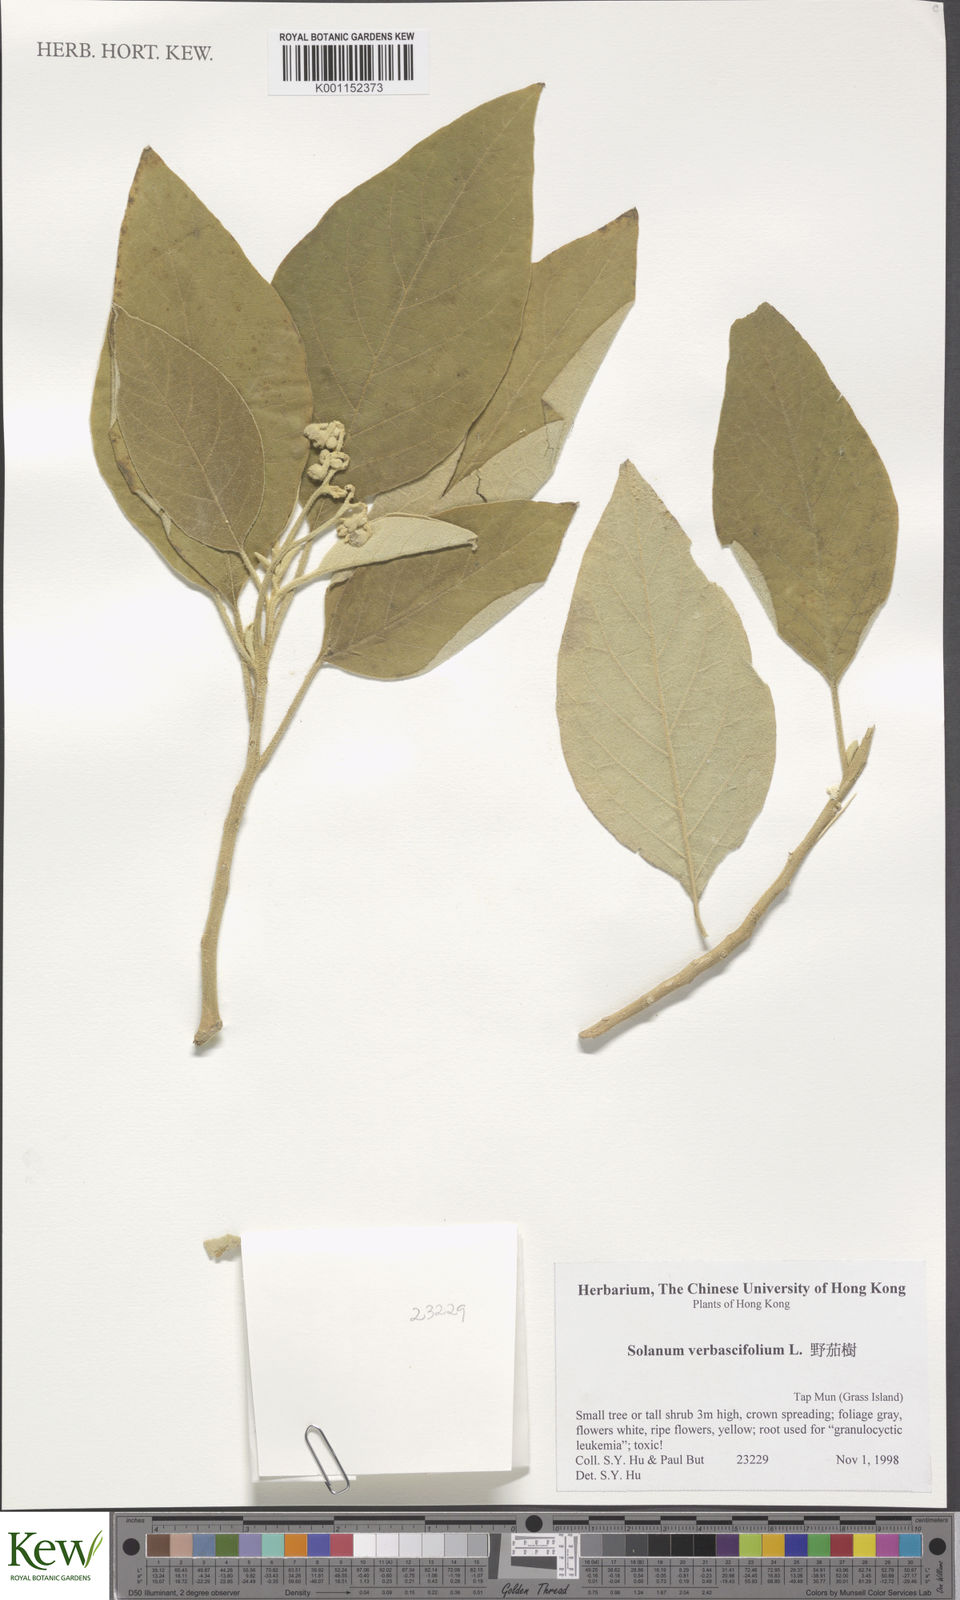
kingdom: Plantae
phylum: Tracheophyta
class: Magnoliopsida
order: Solanales
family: Solanaceae
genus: Solanum
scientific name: Solanum erianthum
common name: Tobacco-tree
